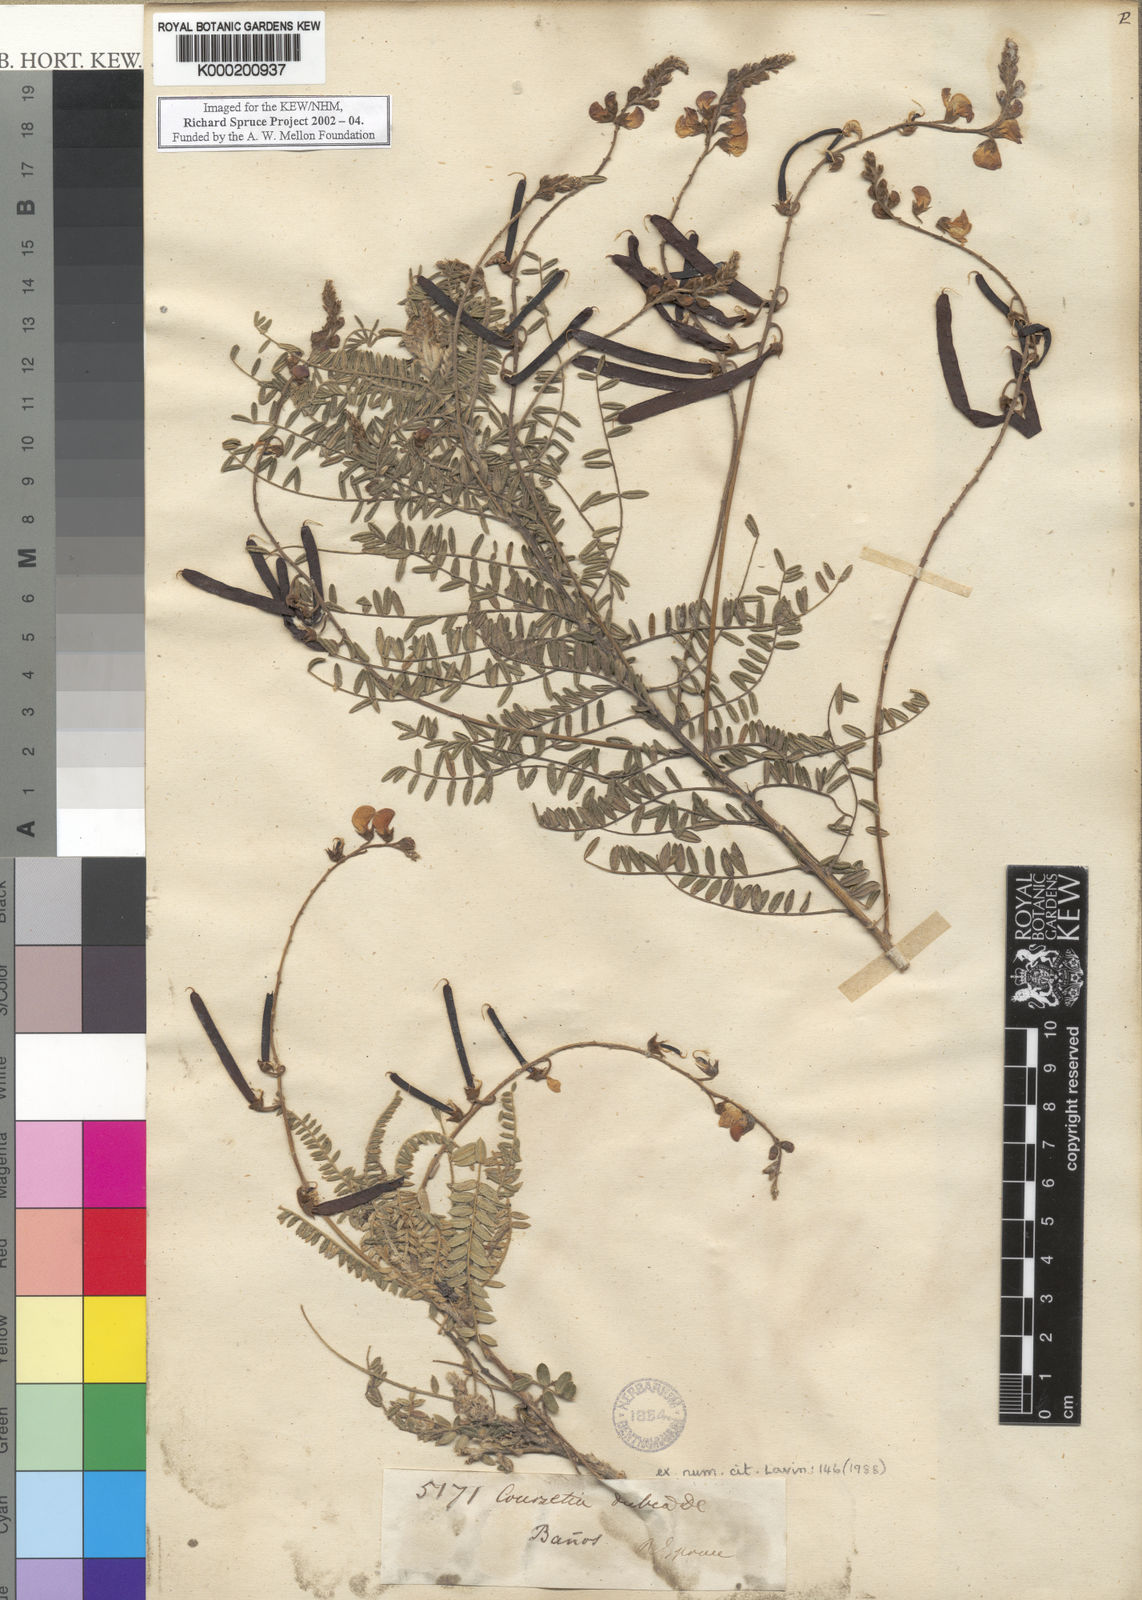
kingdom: Plantae
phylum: Tracheophyta
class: Magnoliopsida
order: Fabales
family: Fabaceae
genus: Coursetia
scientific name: Coursetia dubia
